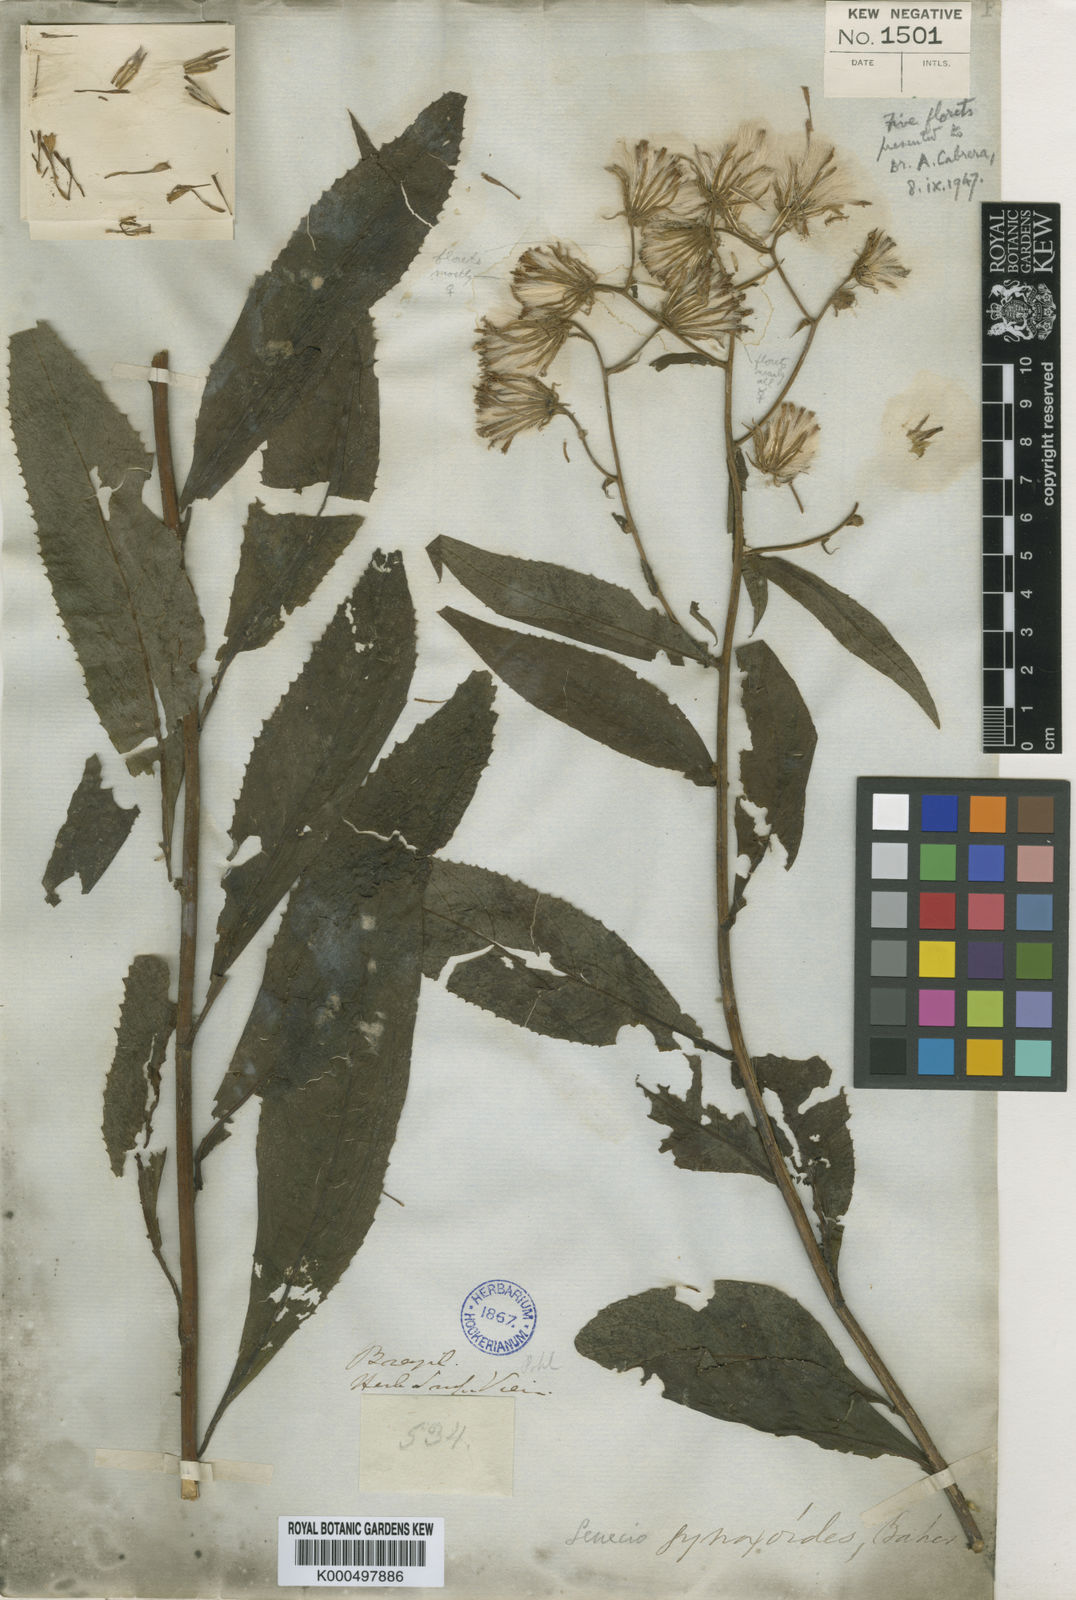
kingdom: Plantae
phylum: Tracheophyta
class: Magnoliopsida
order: Asterales
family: Asteraceae
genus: Senecio
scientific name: Senecio
